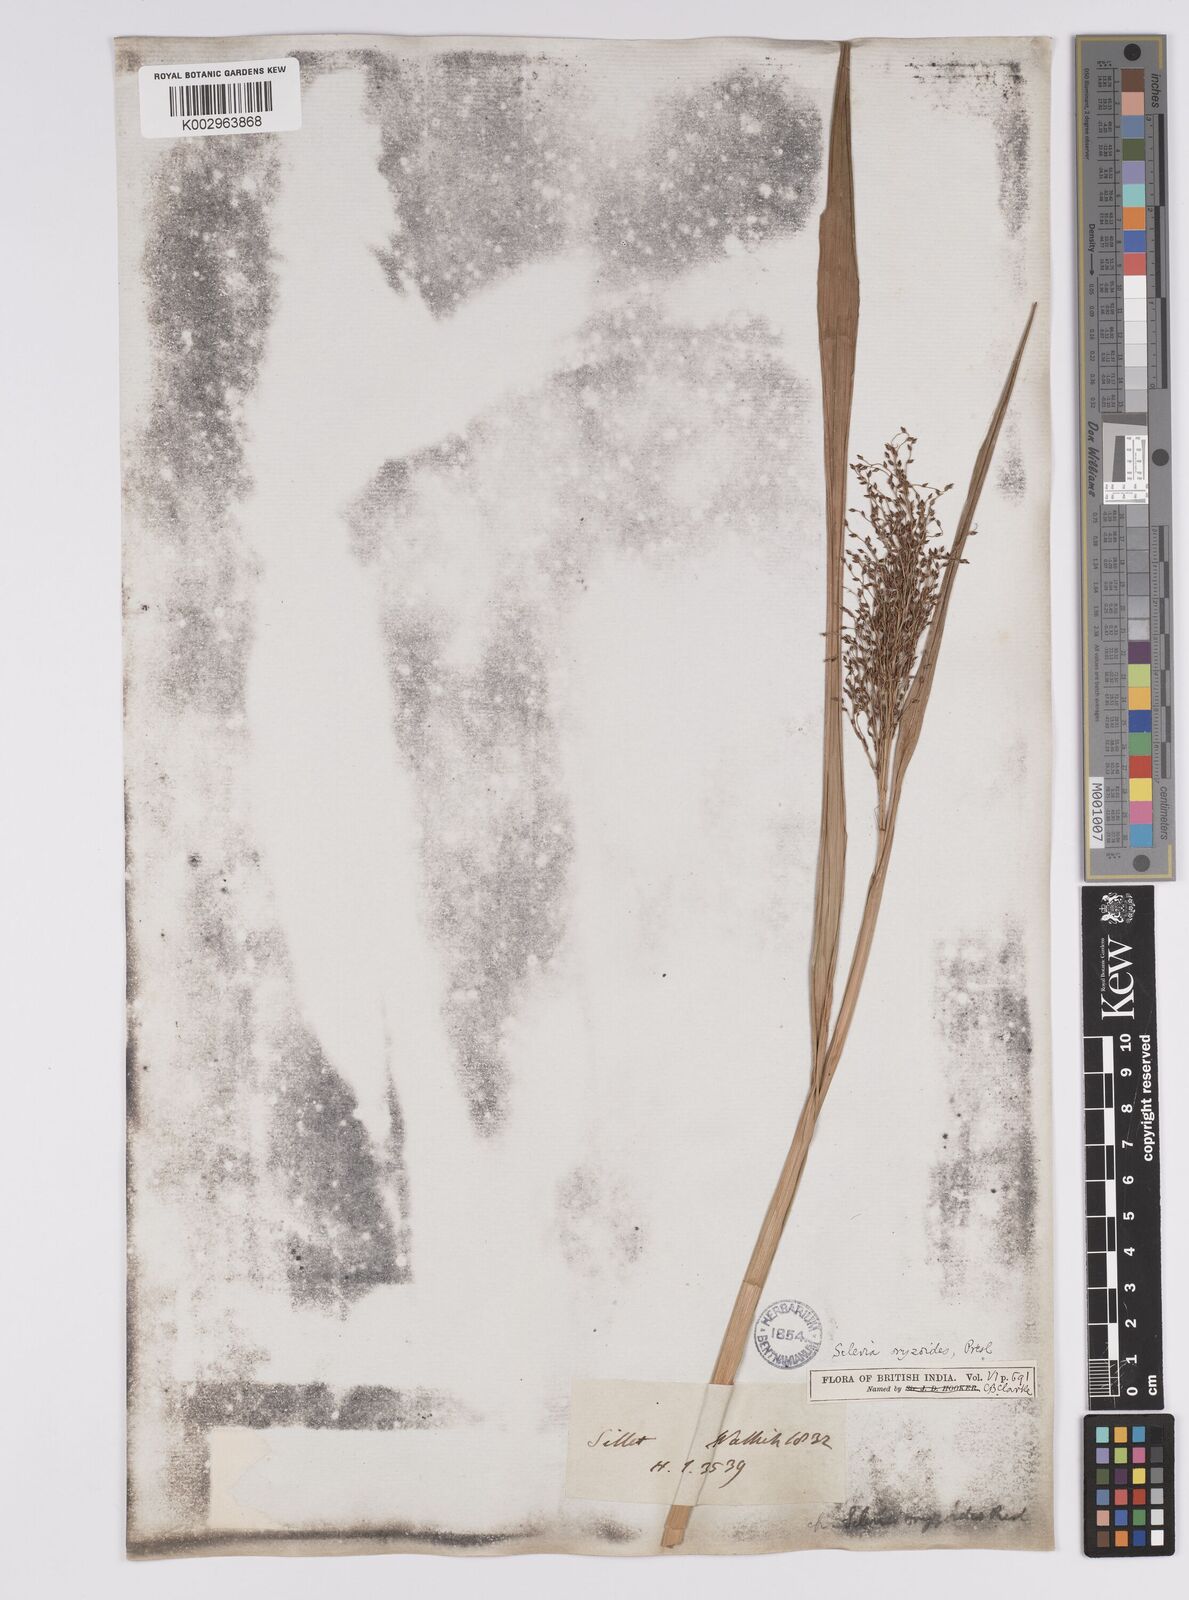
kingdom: Plantae
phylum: Tracheophyta
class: Liliopsida
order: Poales
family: Cyperaceae
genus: Scleria
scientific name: Scleria poiformis
